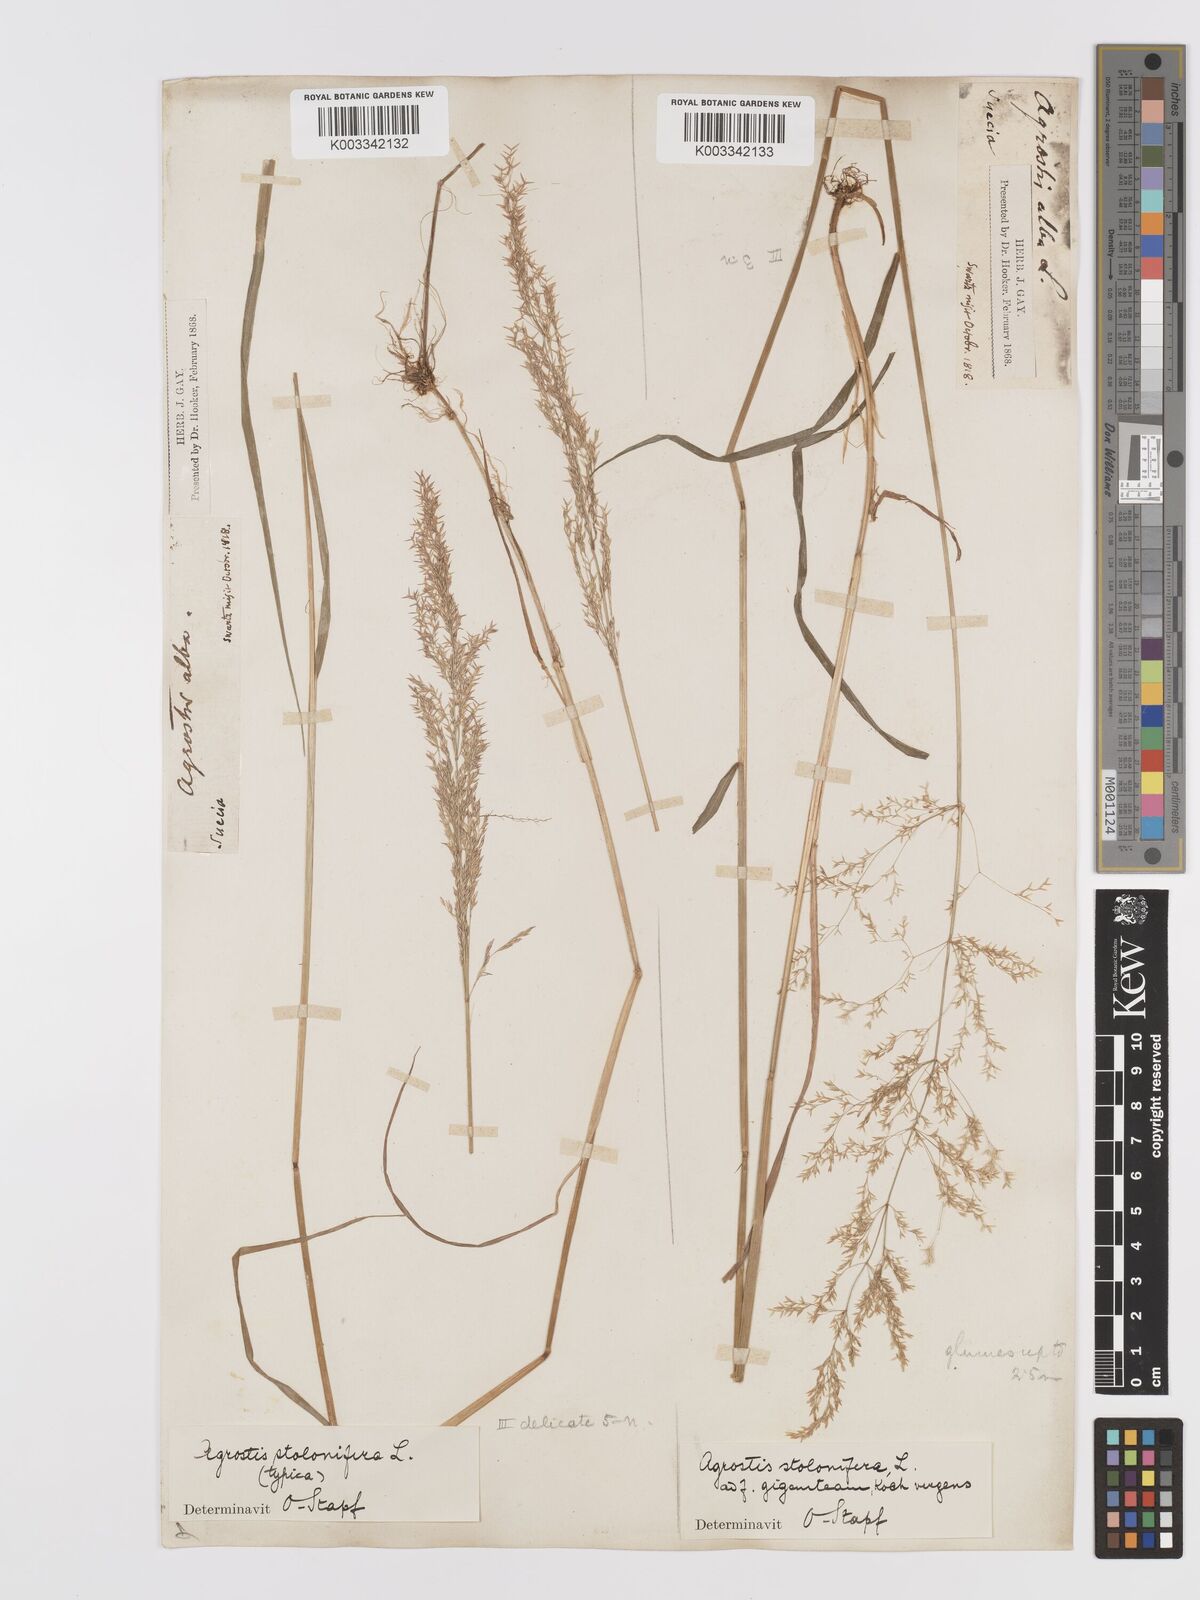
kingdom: Plantae
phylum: Tracheophyta
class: Liliopsida
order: Poales
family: Poaceae
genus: Agrostis
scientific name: Agrostis stolonifera
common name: Creeping bentgrass
